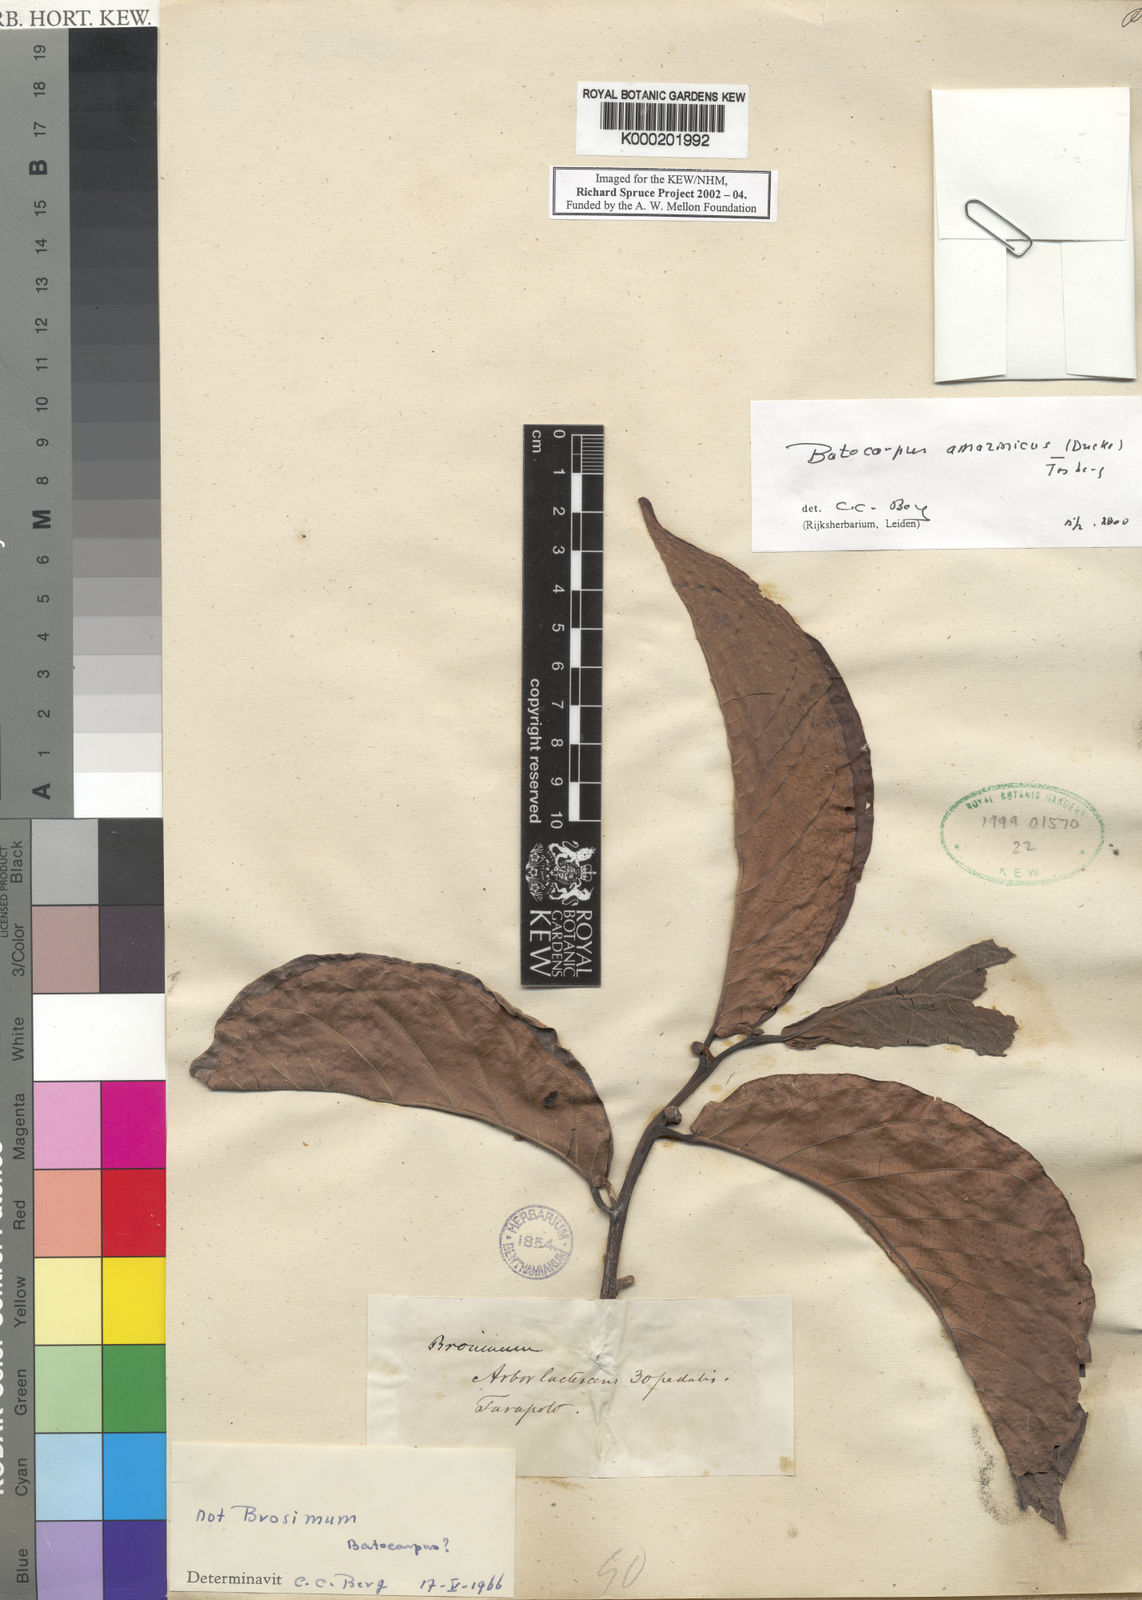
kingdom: Plantae
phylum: Tracheophyta
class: Magnoliopsida
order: Rosales
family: Moraceae
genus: Batocarpus
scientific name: Batocarpus amazonicus
